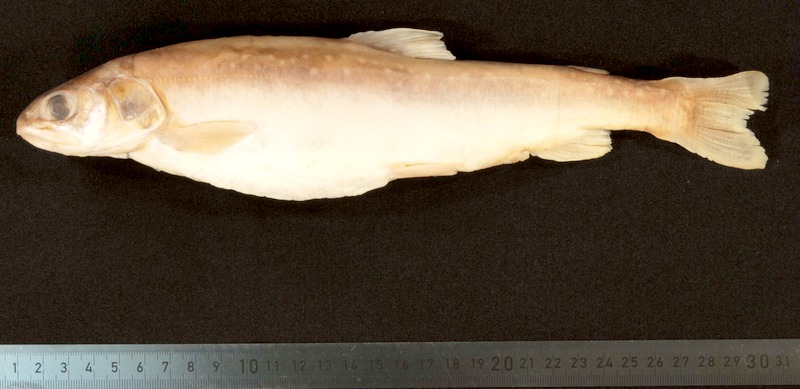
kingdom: Animalia
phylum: Chordata
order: Salmoniformes
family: Salmonidae
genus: Salvelinus
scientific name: Salvelinus evasus
